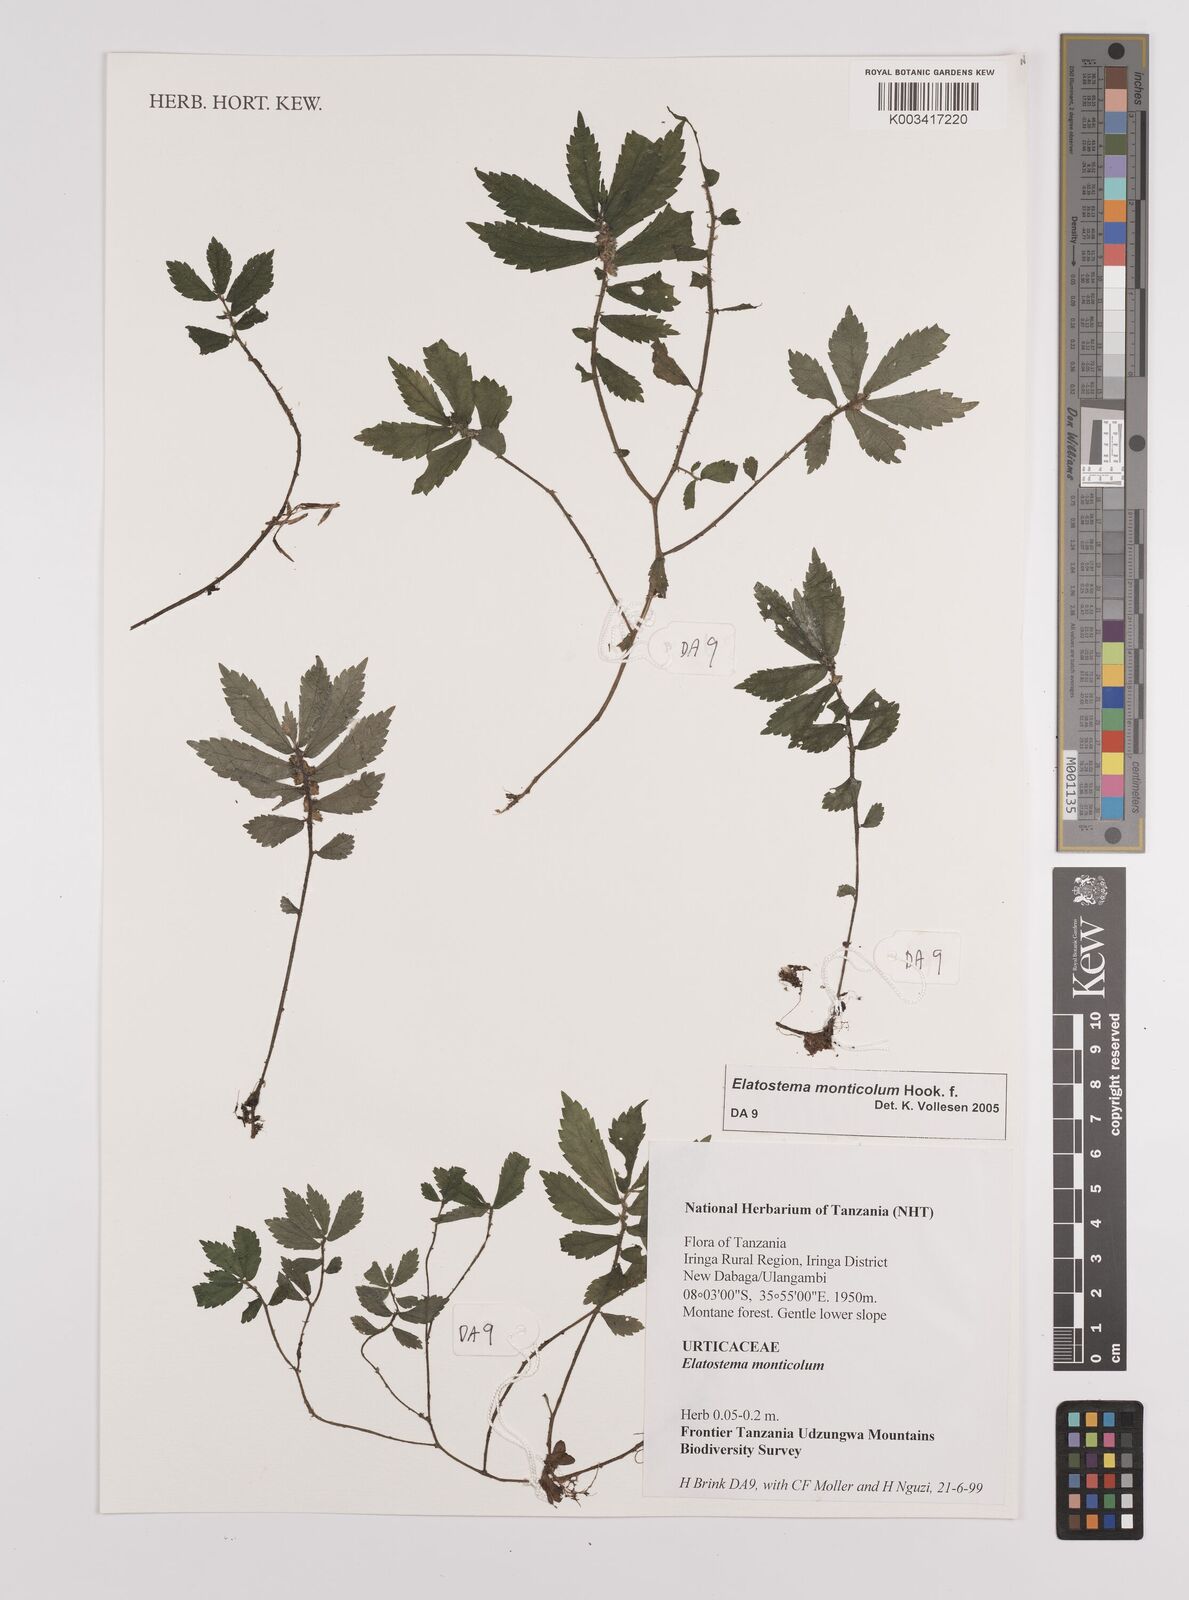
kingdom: Plantae
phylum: Tracheophyta
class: Magnoliopsida
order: Rosales
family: Urticaceae
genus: Elatostema
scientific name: Elatostema monticola
